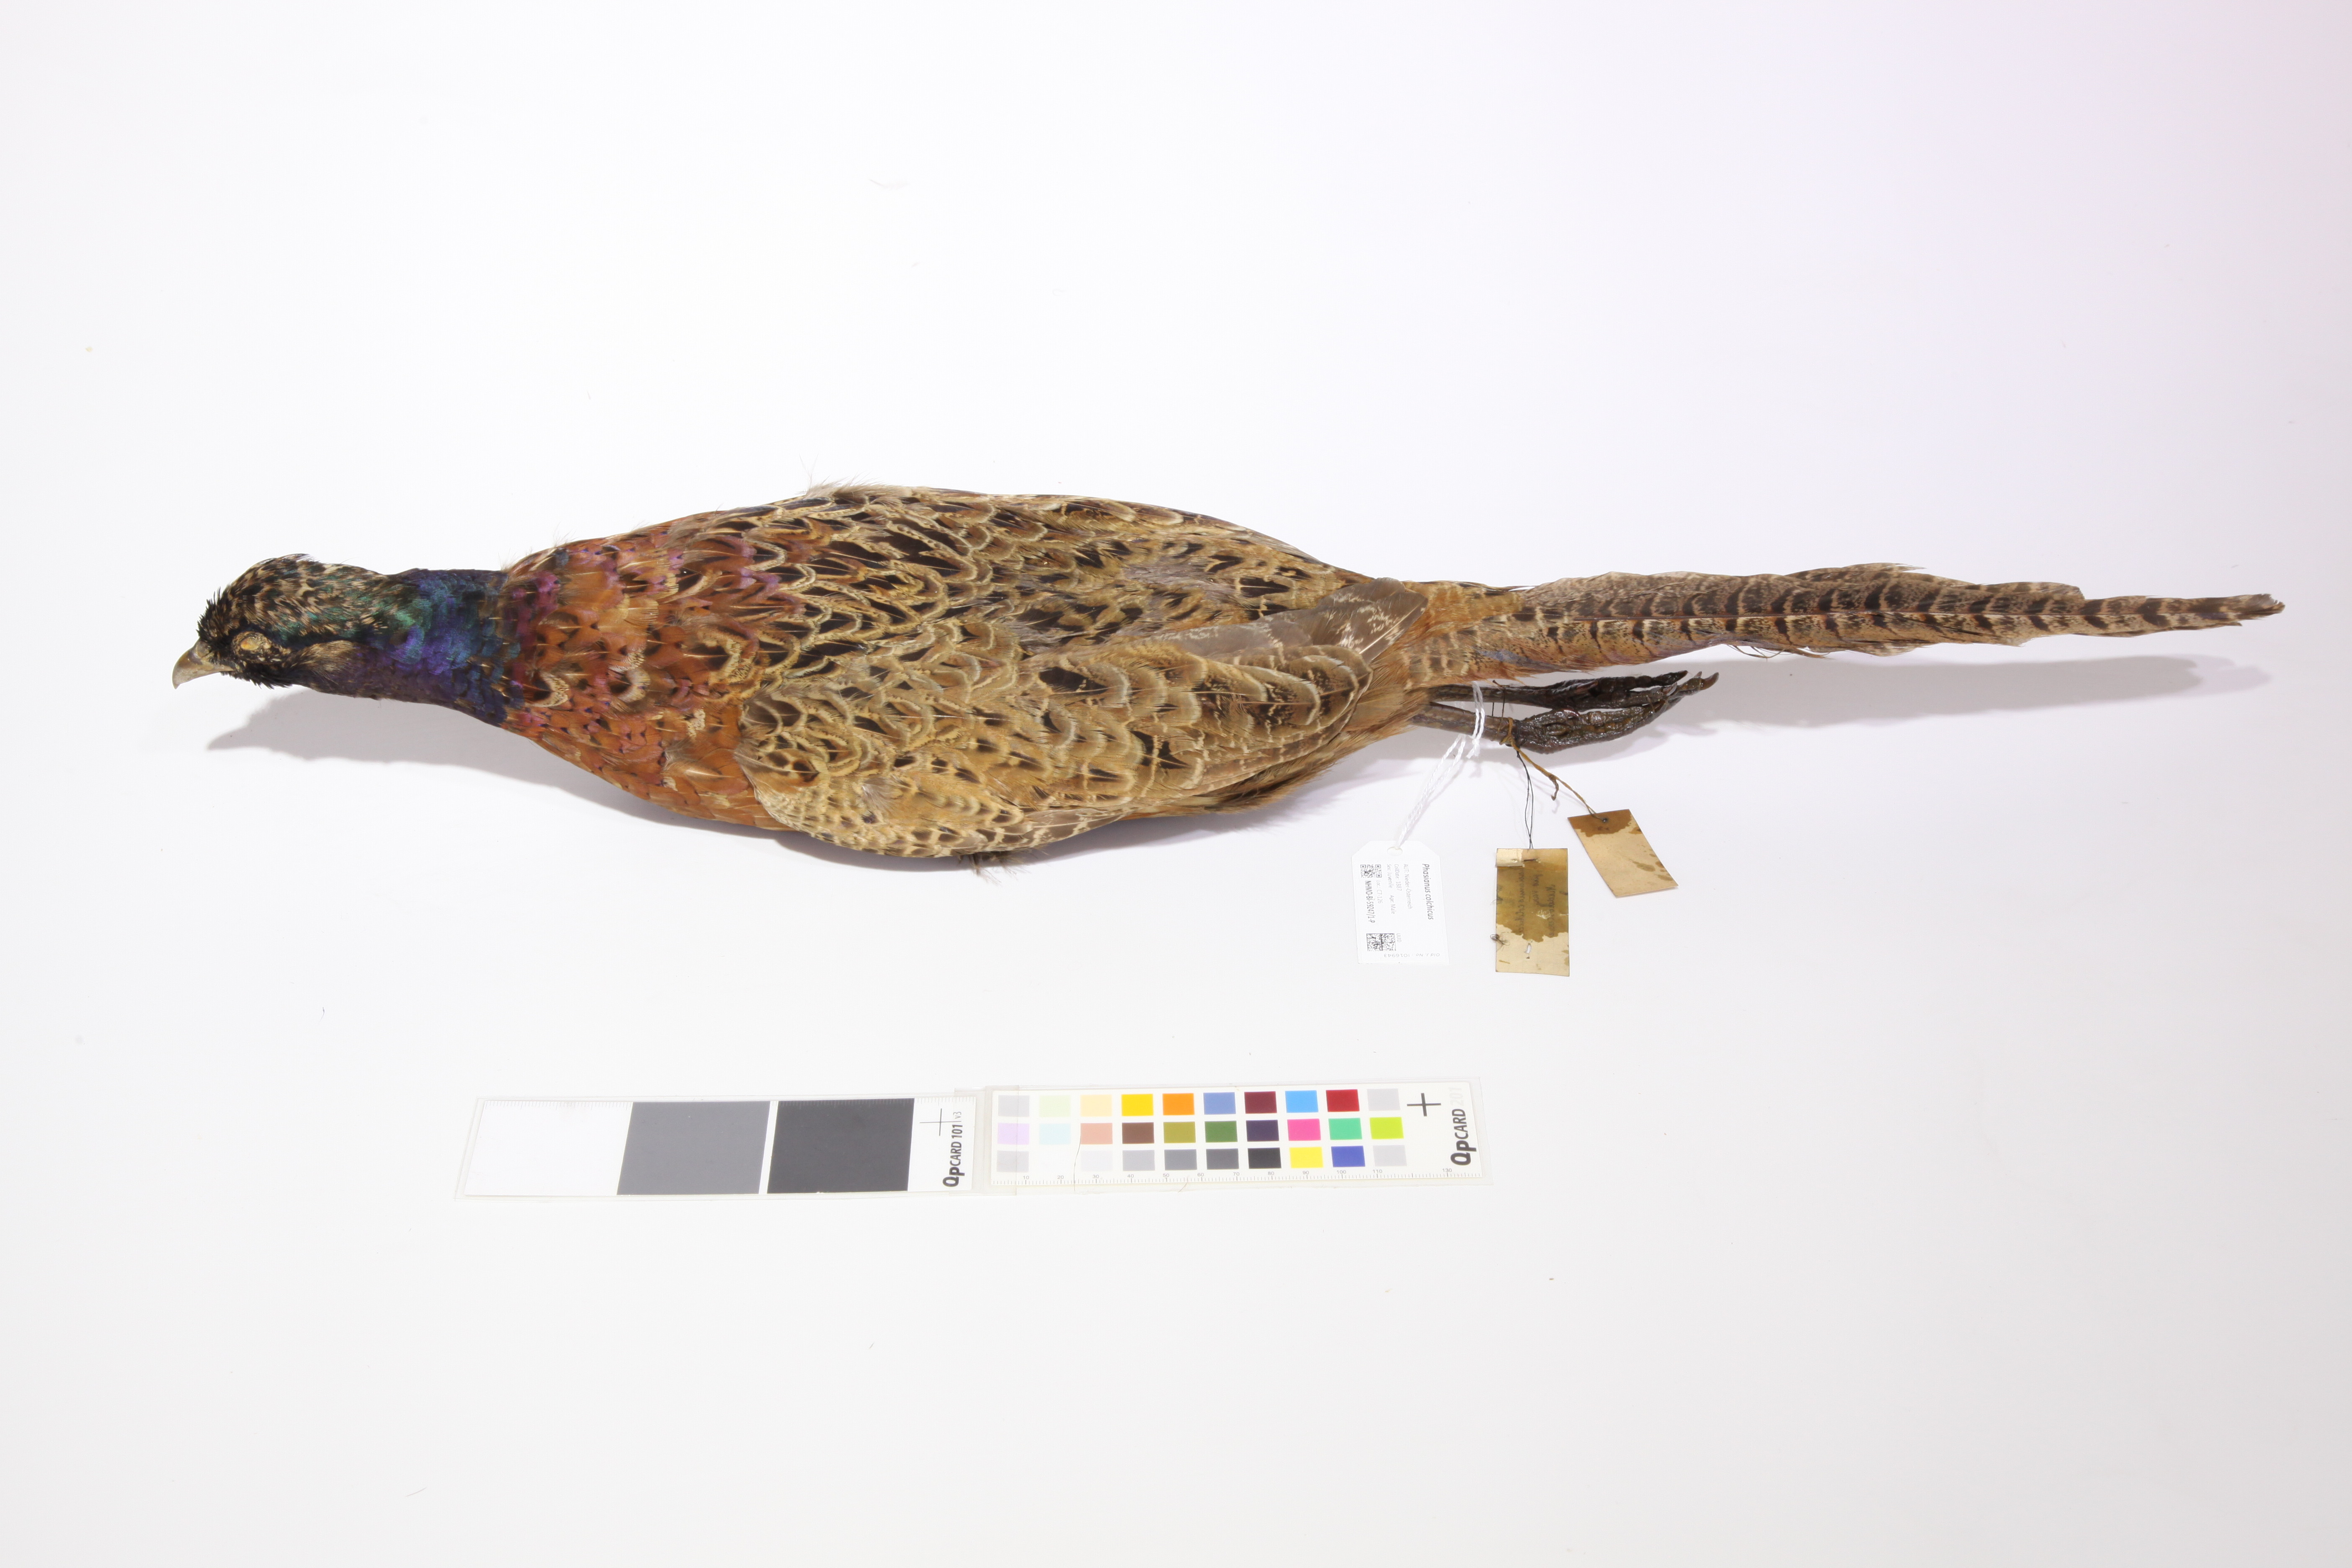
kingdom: Animalia
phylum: Chordata
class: Aves
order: Galliformes
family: Phasianidae
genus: Phasianus
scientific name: Phasianus colchicus
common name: Common pheasant
